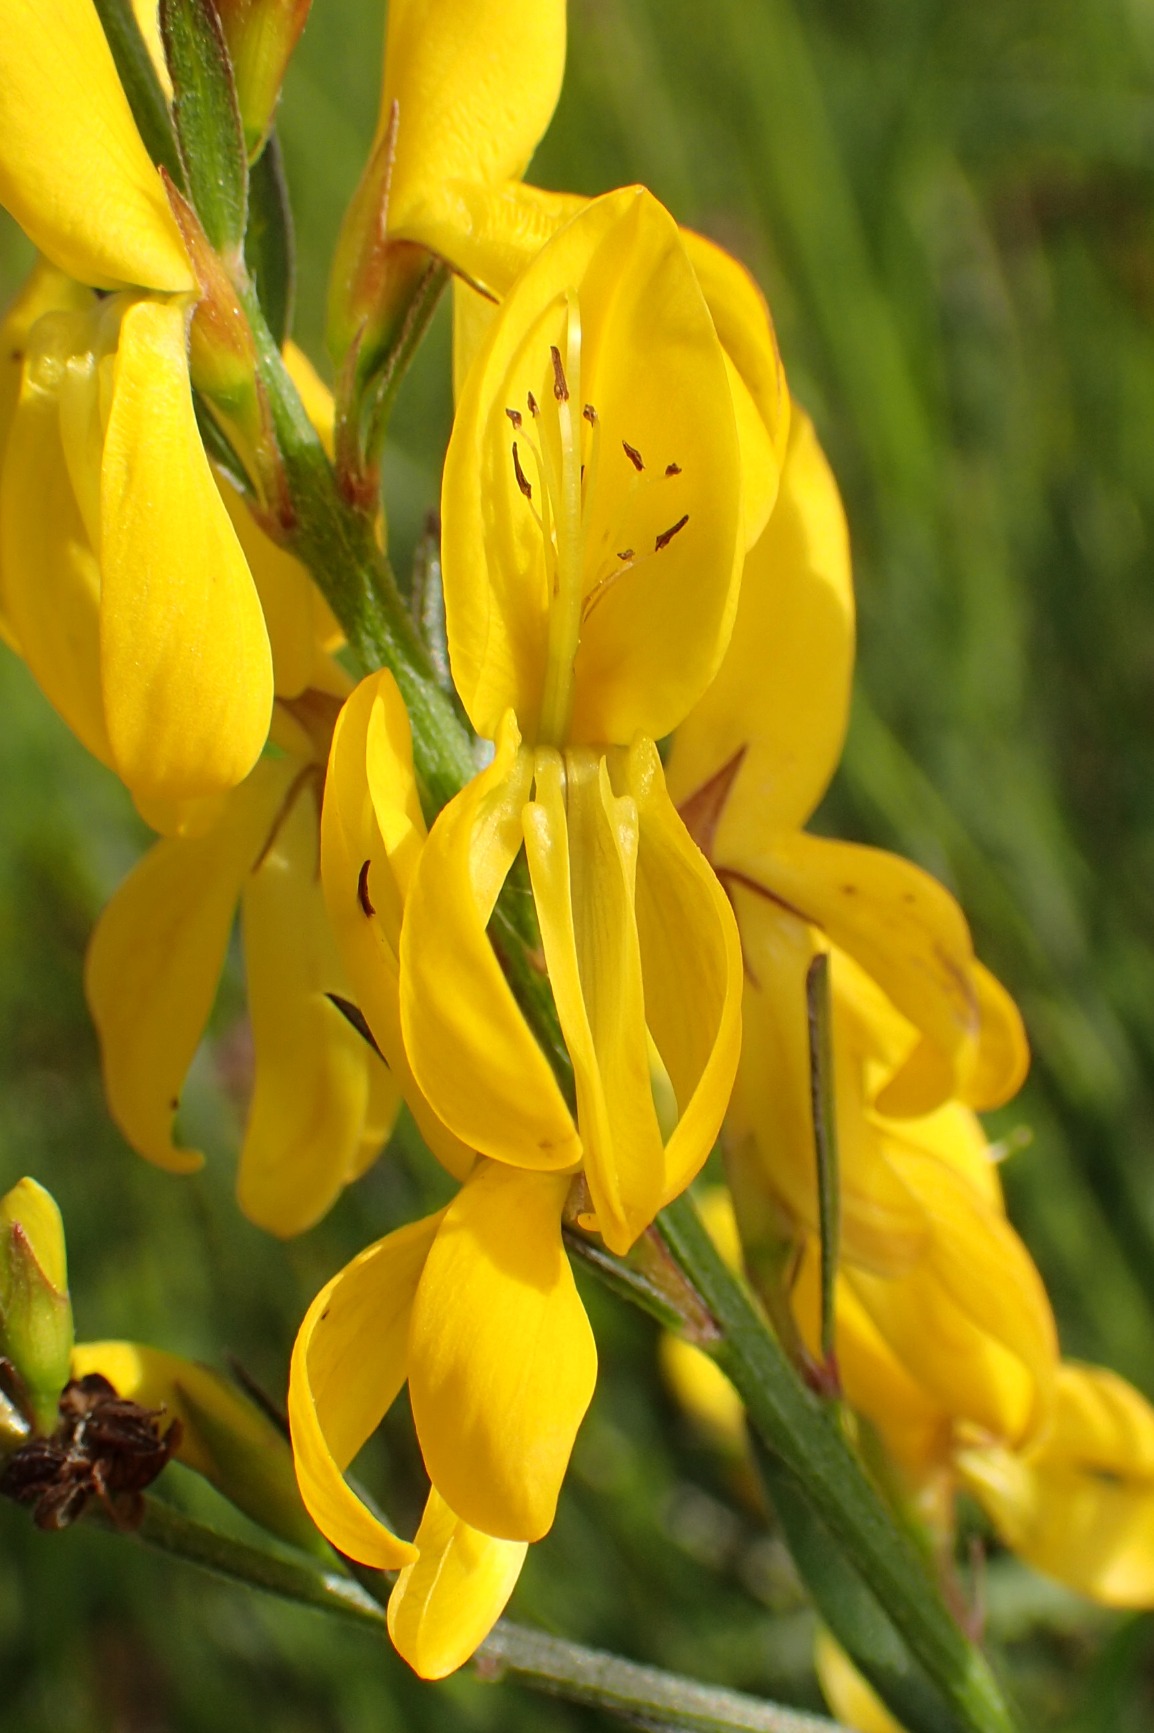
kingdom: Plantae
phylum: Tracheophyta
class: Magnoliopsida
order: Fabales
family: Fabaceae
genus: Genista
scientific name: Genista tinctoria
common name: Farve-visse
